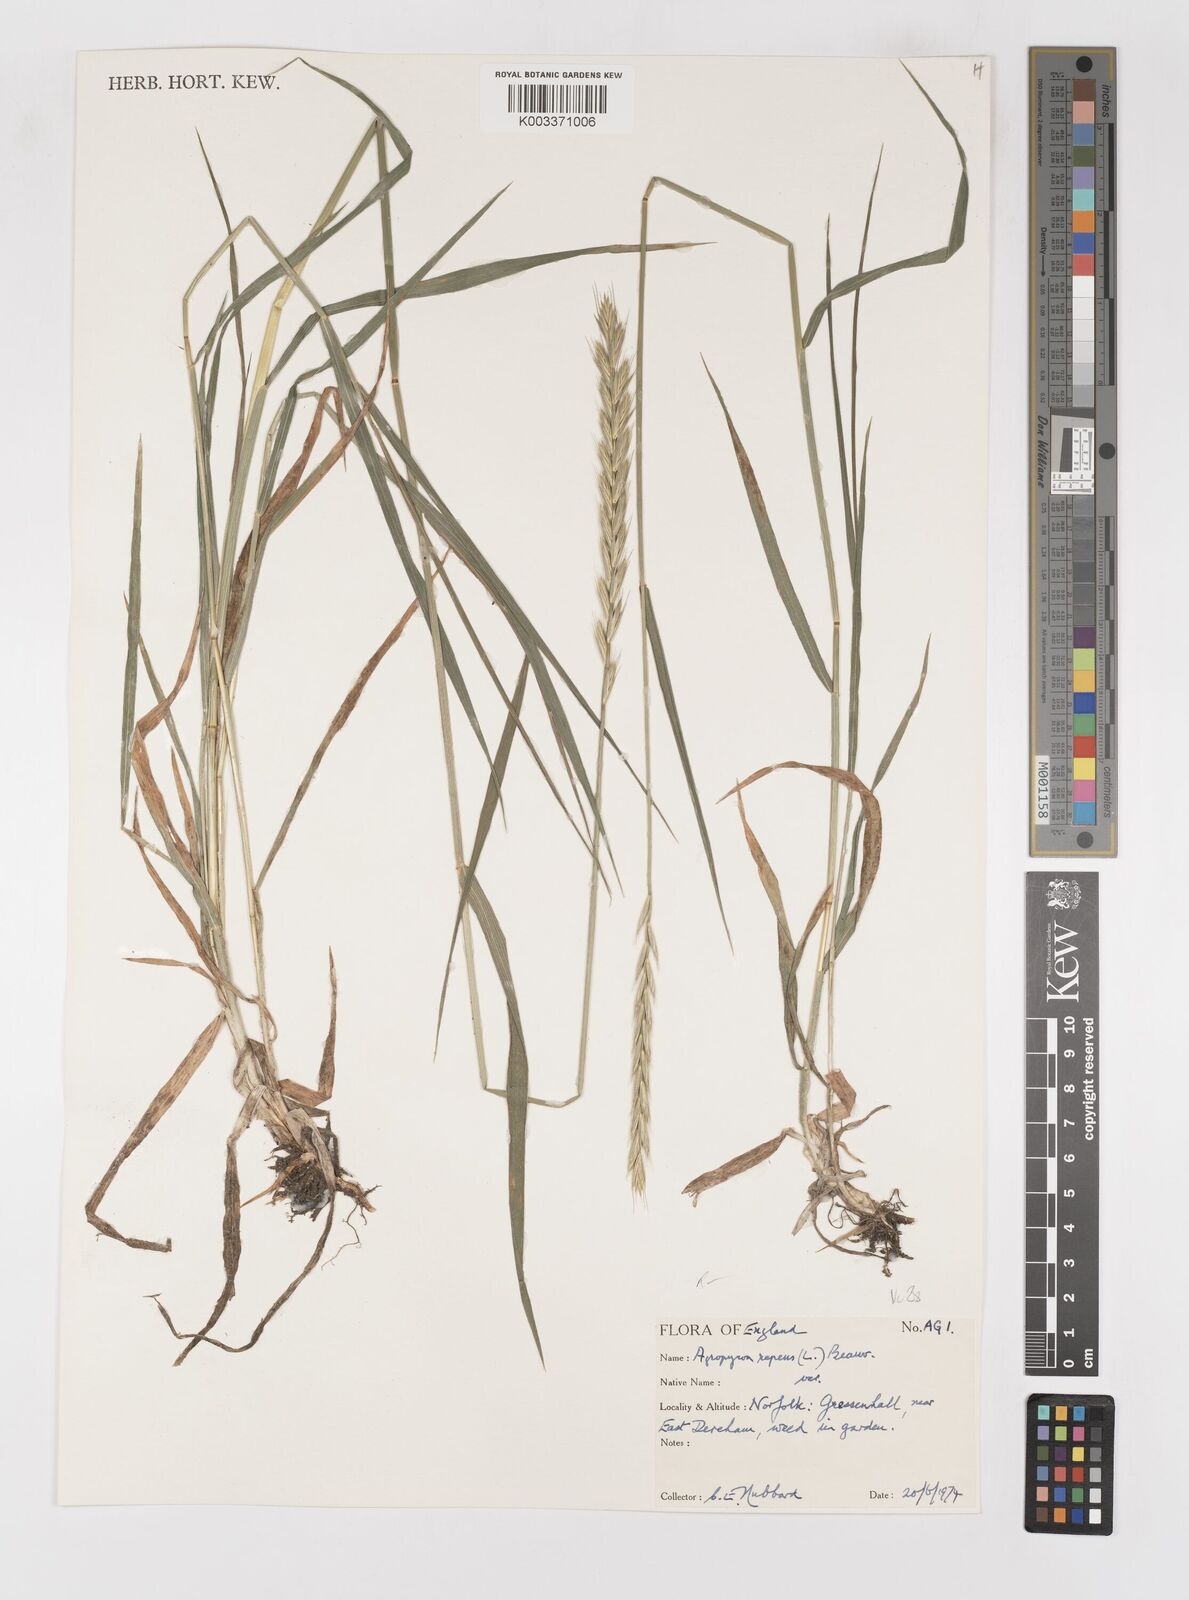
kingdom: Plantae
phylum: Tracheophyta
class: Liliopsida
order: Poales
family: Poaceae
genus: Elymus
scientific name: Elymus repens
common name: Quackgrass
